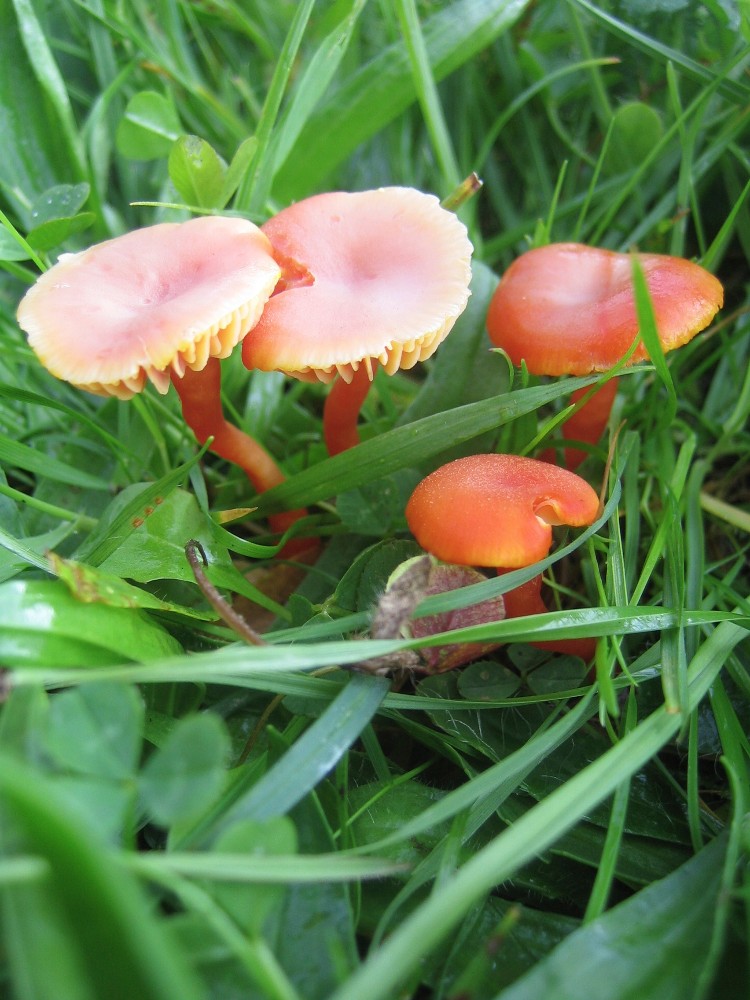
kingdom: Fungi
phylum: Basidiomycota
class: Agaricomycetes
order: Agaricales
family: Hygrophoraceae
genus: Hygrocybe
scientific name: Hygrocybe miniata
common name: mønje-vokshat
